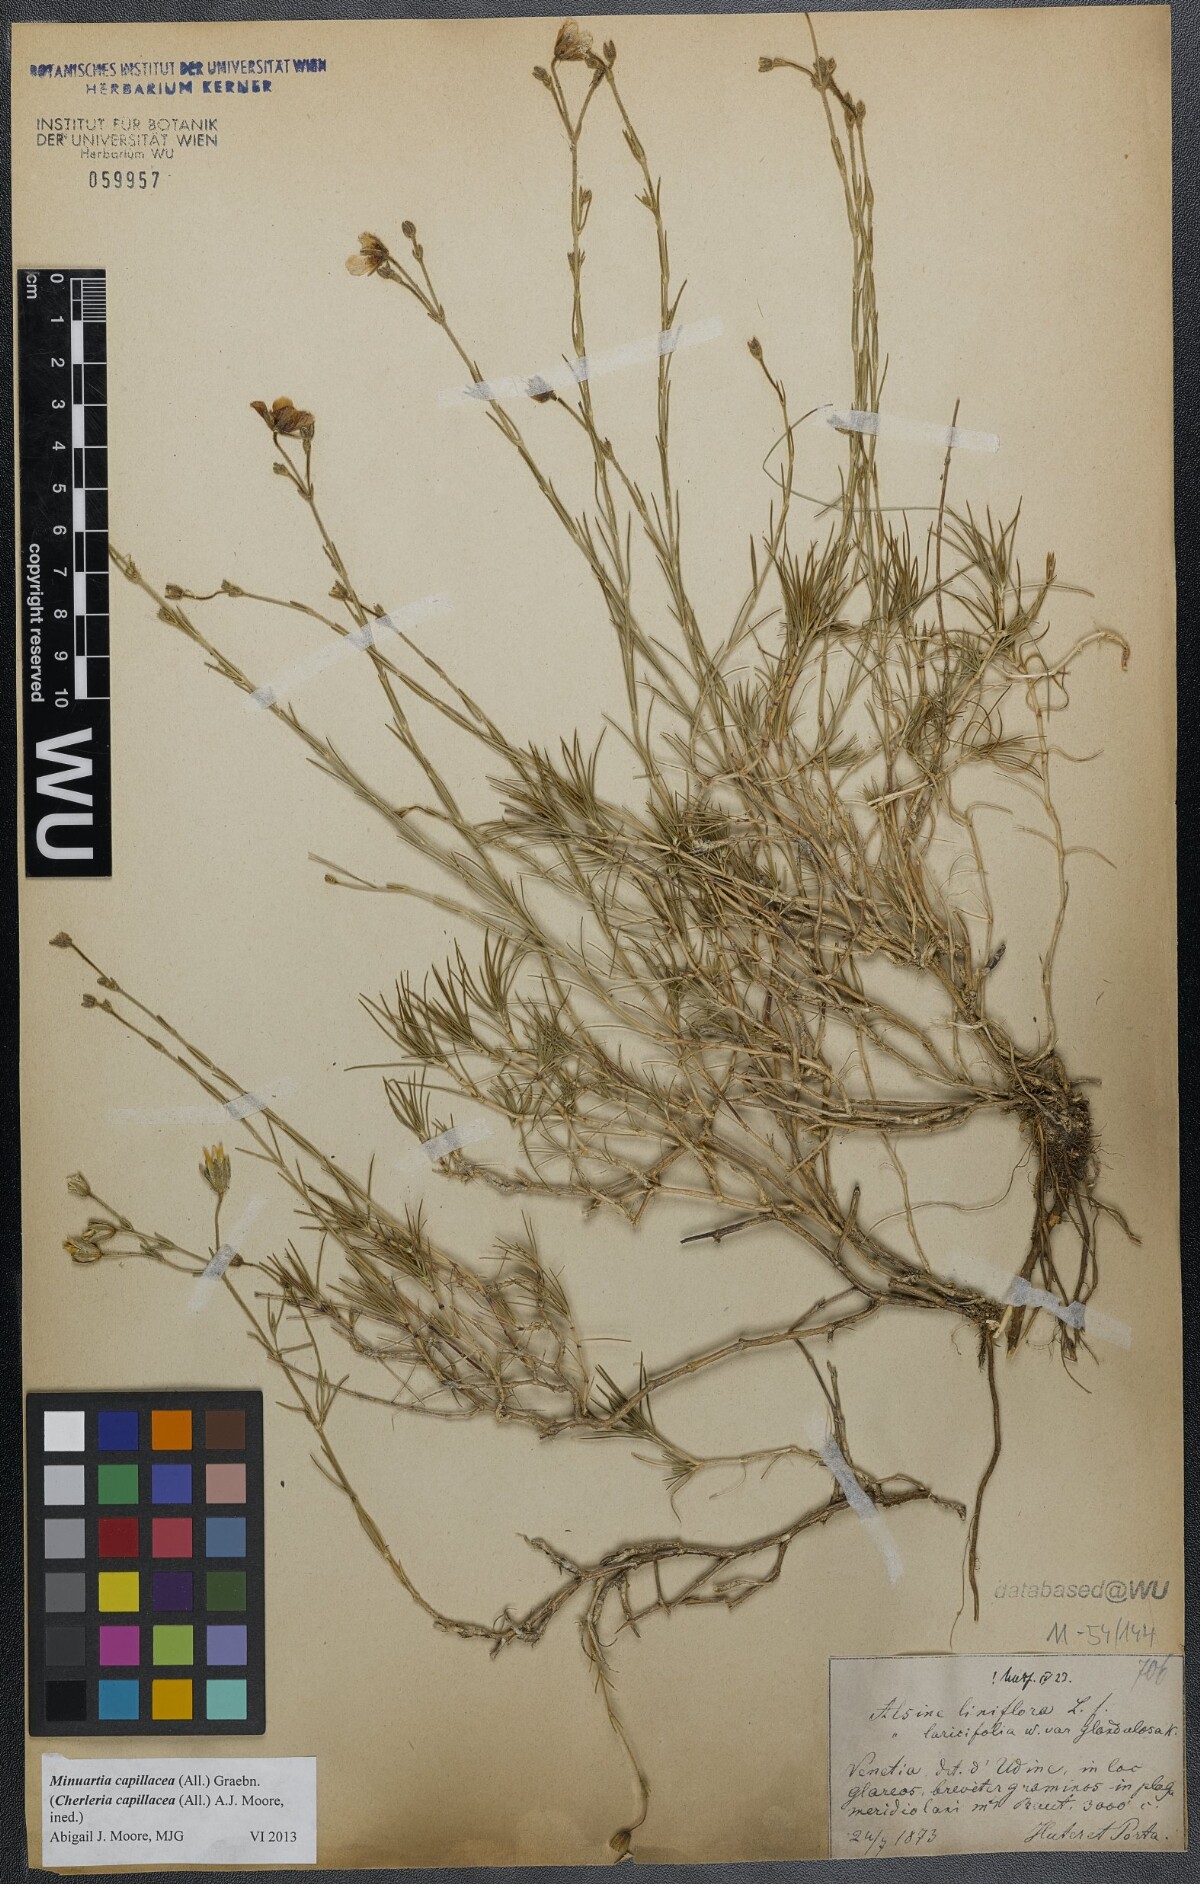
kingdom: Plantae
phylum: Tracheophyta
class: Magnoliopsida
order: Caryophyllales
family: Caryophyllaceae
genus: Cherleria
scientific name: Cherleria capillacea
